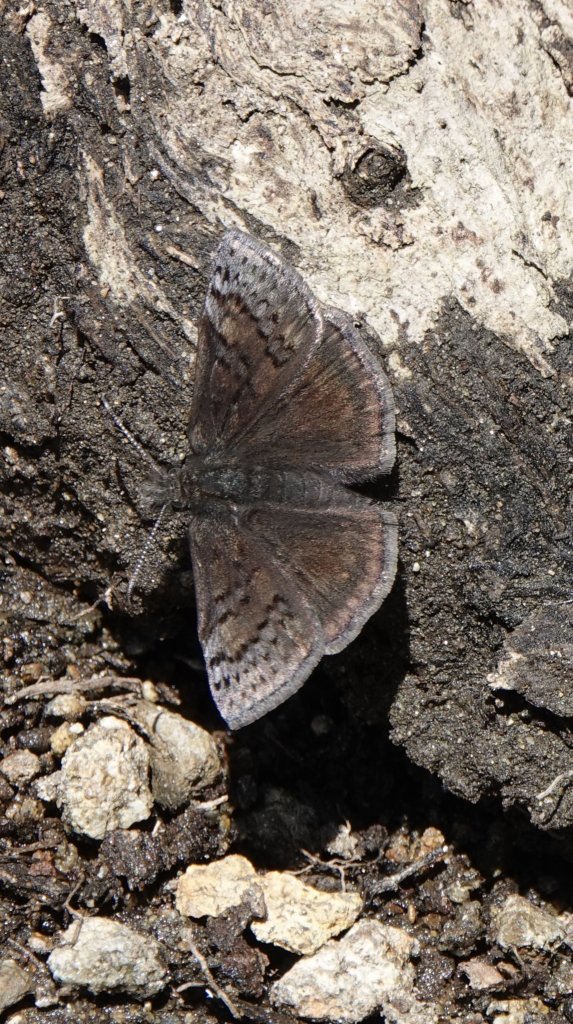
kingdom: Animalia
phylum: Arthropoda
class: Insecta
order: Lepidoptera
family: Hesperiidae
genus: Erynnis
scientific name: Erynnis brizo
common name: Sleepy Duskywing
